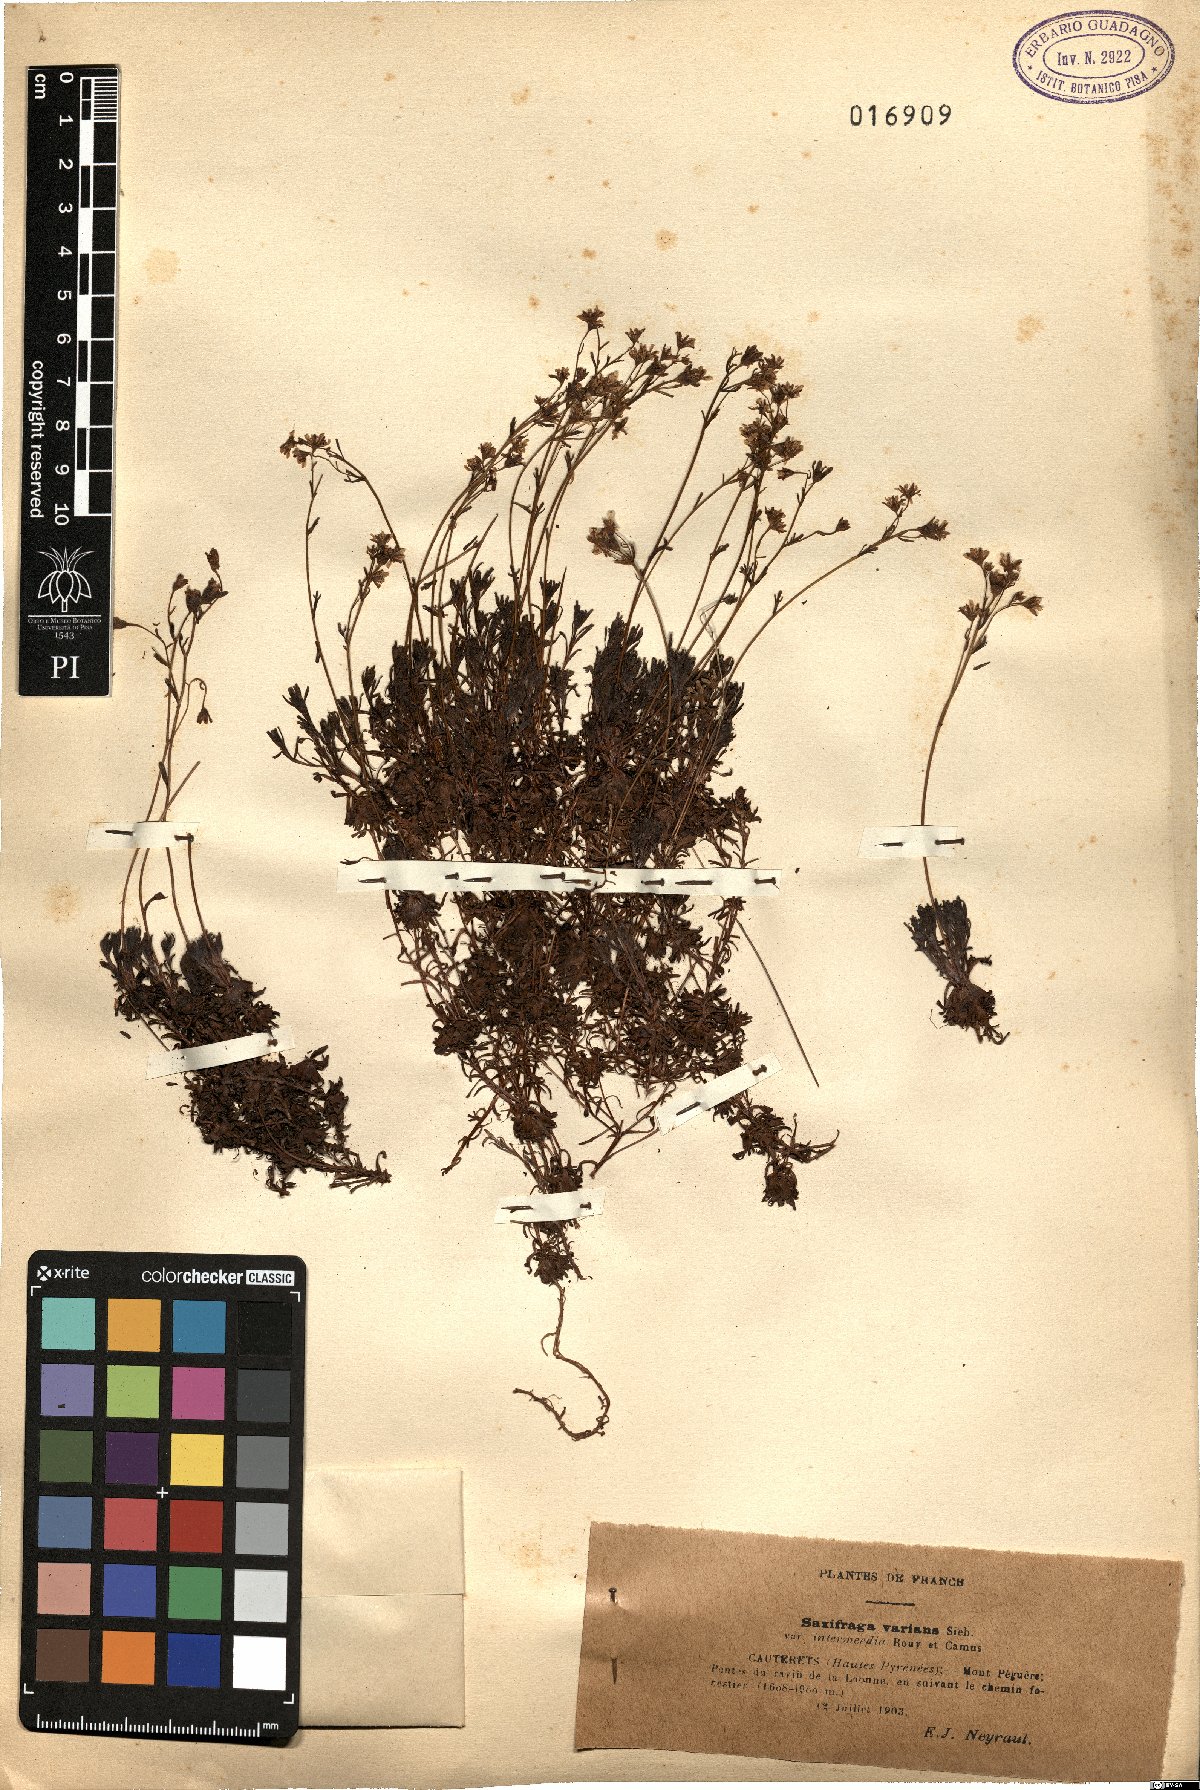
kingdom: Plantae
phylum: Tracheophyta
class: Magnoliopsida
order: Saxifragales
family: Saxifragaceae
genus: Saxifraga
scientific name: Saxifraga moschata
